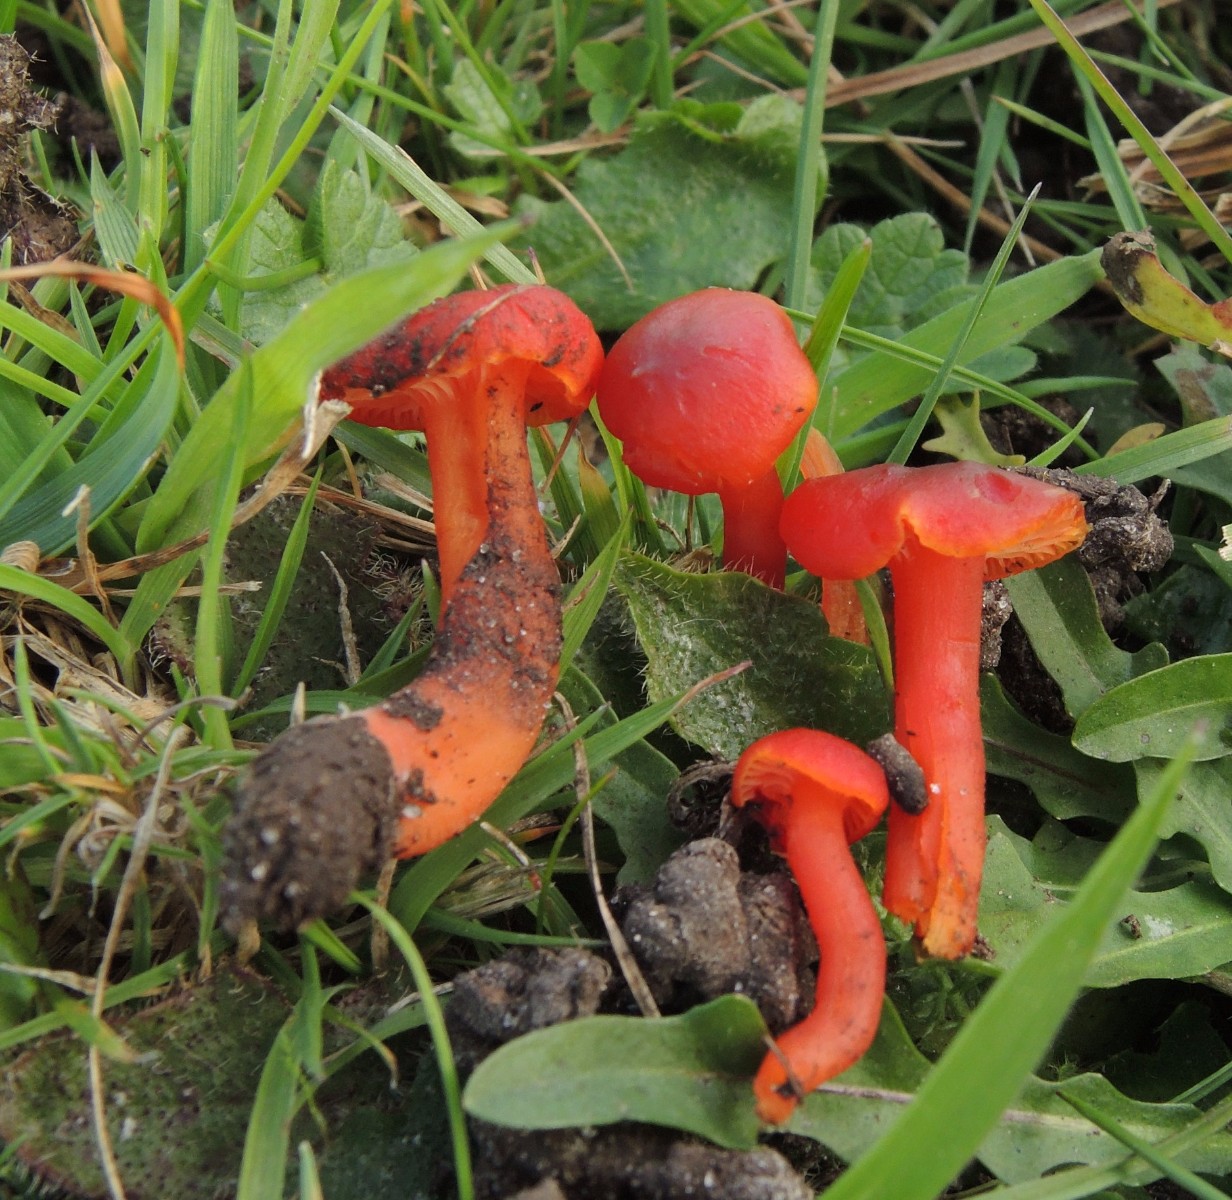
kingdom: Fungi
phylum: Basidiomycota
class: Agaricomycetes
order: Agaricales
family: Hygrophoraceae
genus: Hygrocybe
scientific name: Hygrocybe phaeococcinea
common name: sortdugget vokshat
